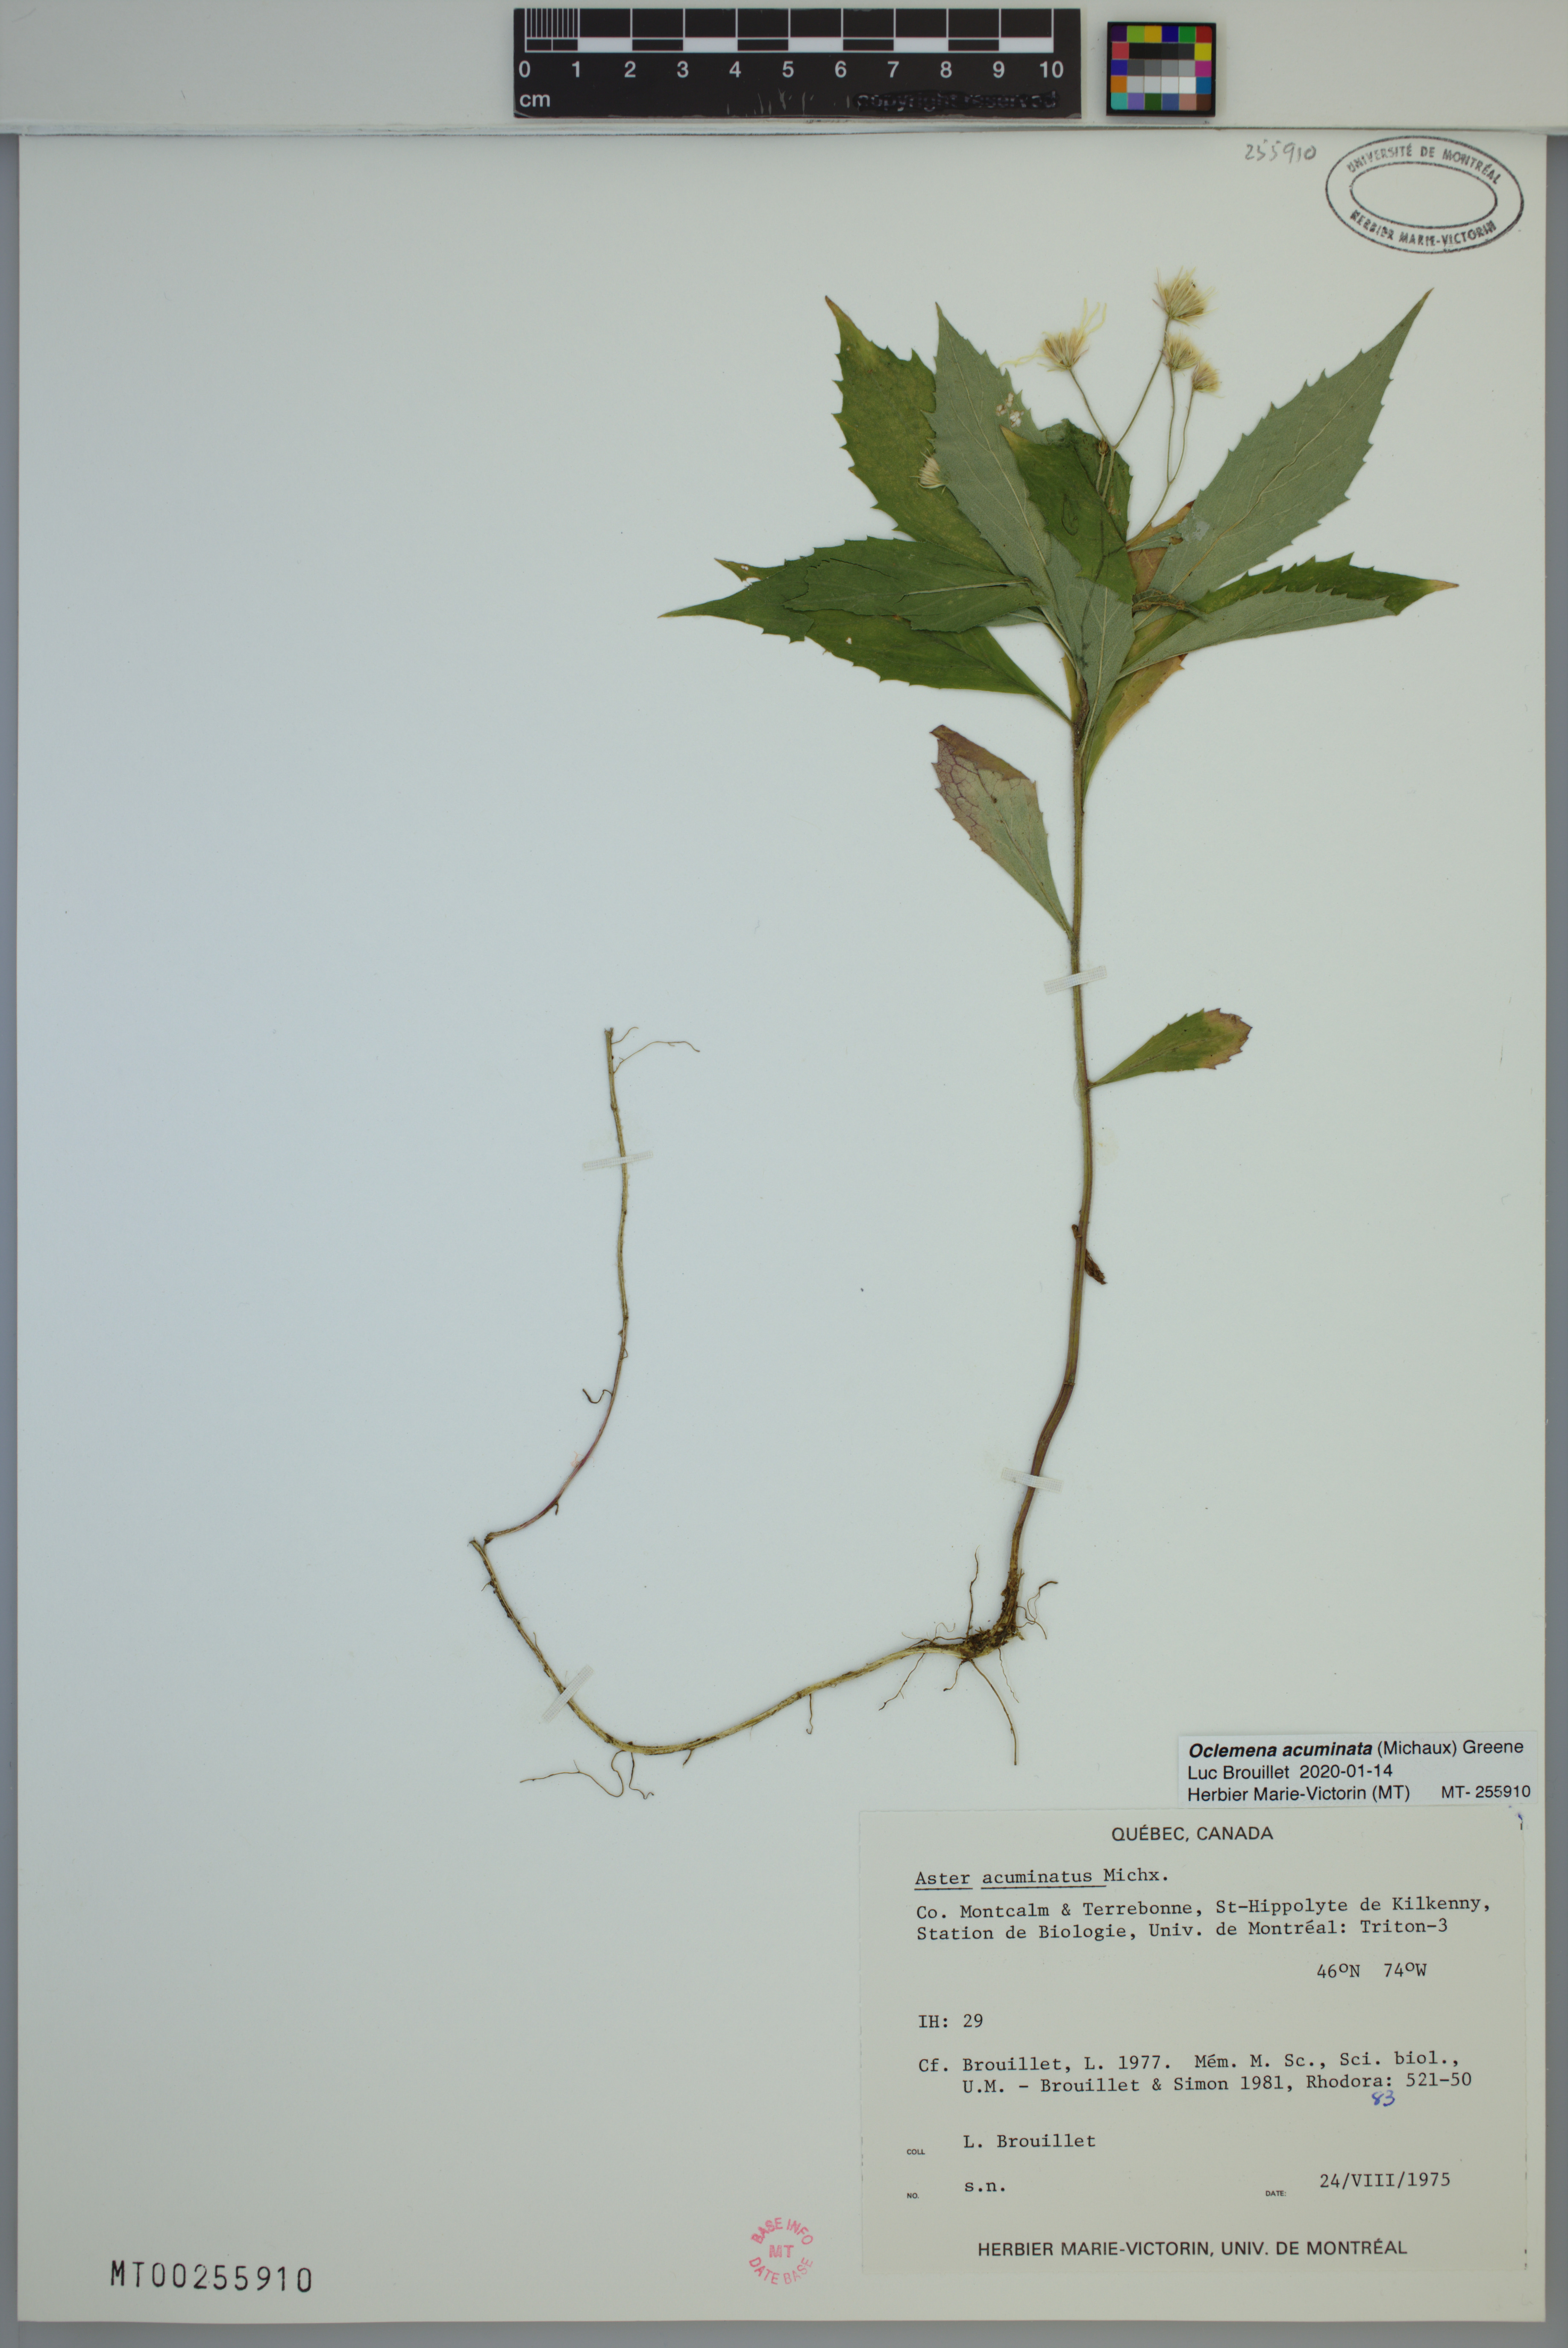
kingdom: Plantae
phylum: Tracheophyta
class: Magnoliopsida
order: Asterales
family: Asteraceae
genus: Oclemena
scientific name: Oclemena acuminata
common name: Mountain aster
